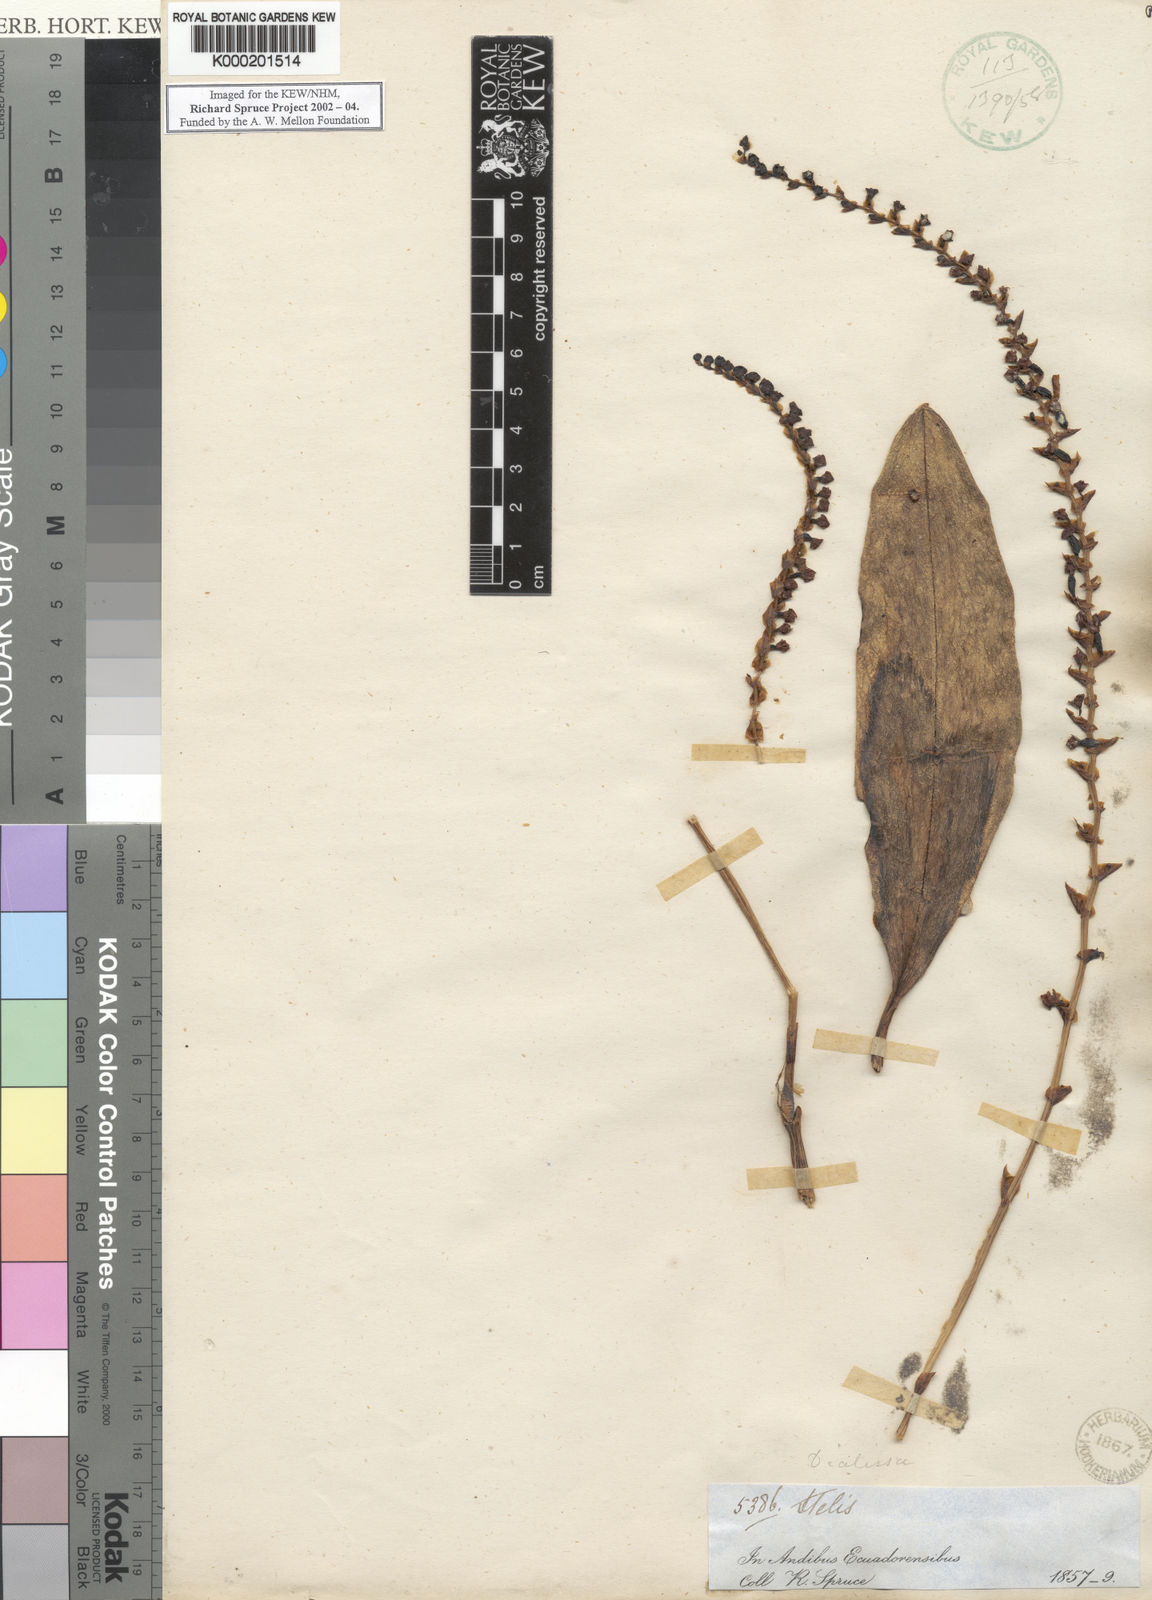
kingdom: Plantae
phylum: Tracheophyta
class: Liliopsida
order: Asparagales
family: Orchidaceae
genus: Stelis
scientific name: Stelis
